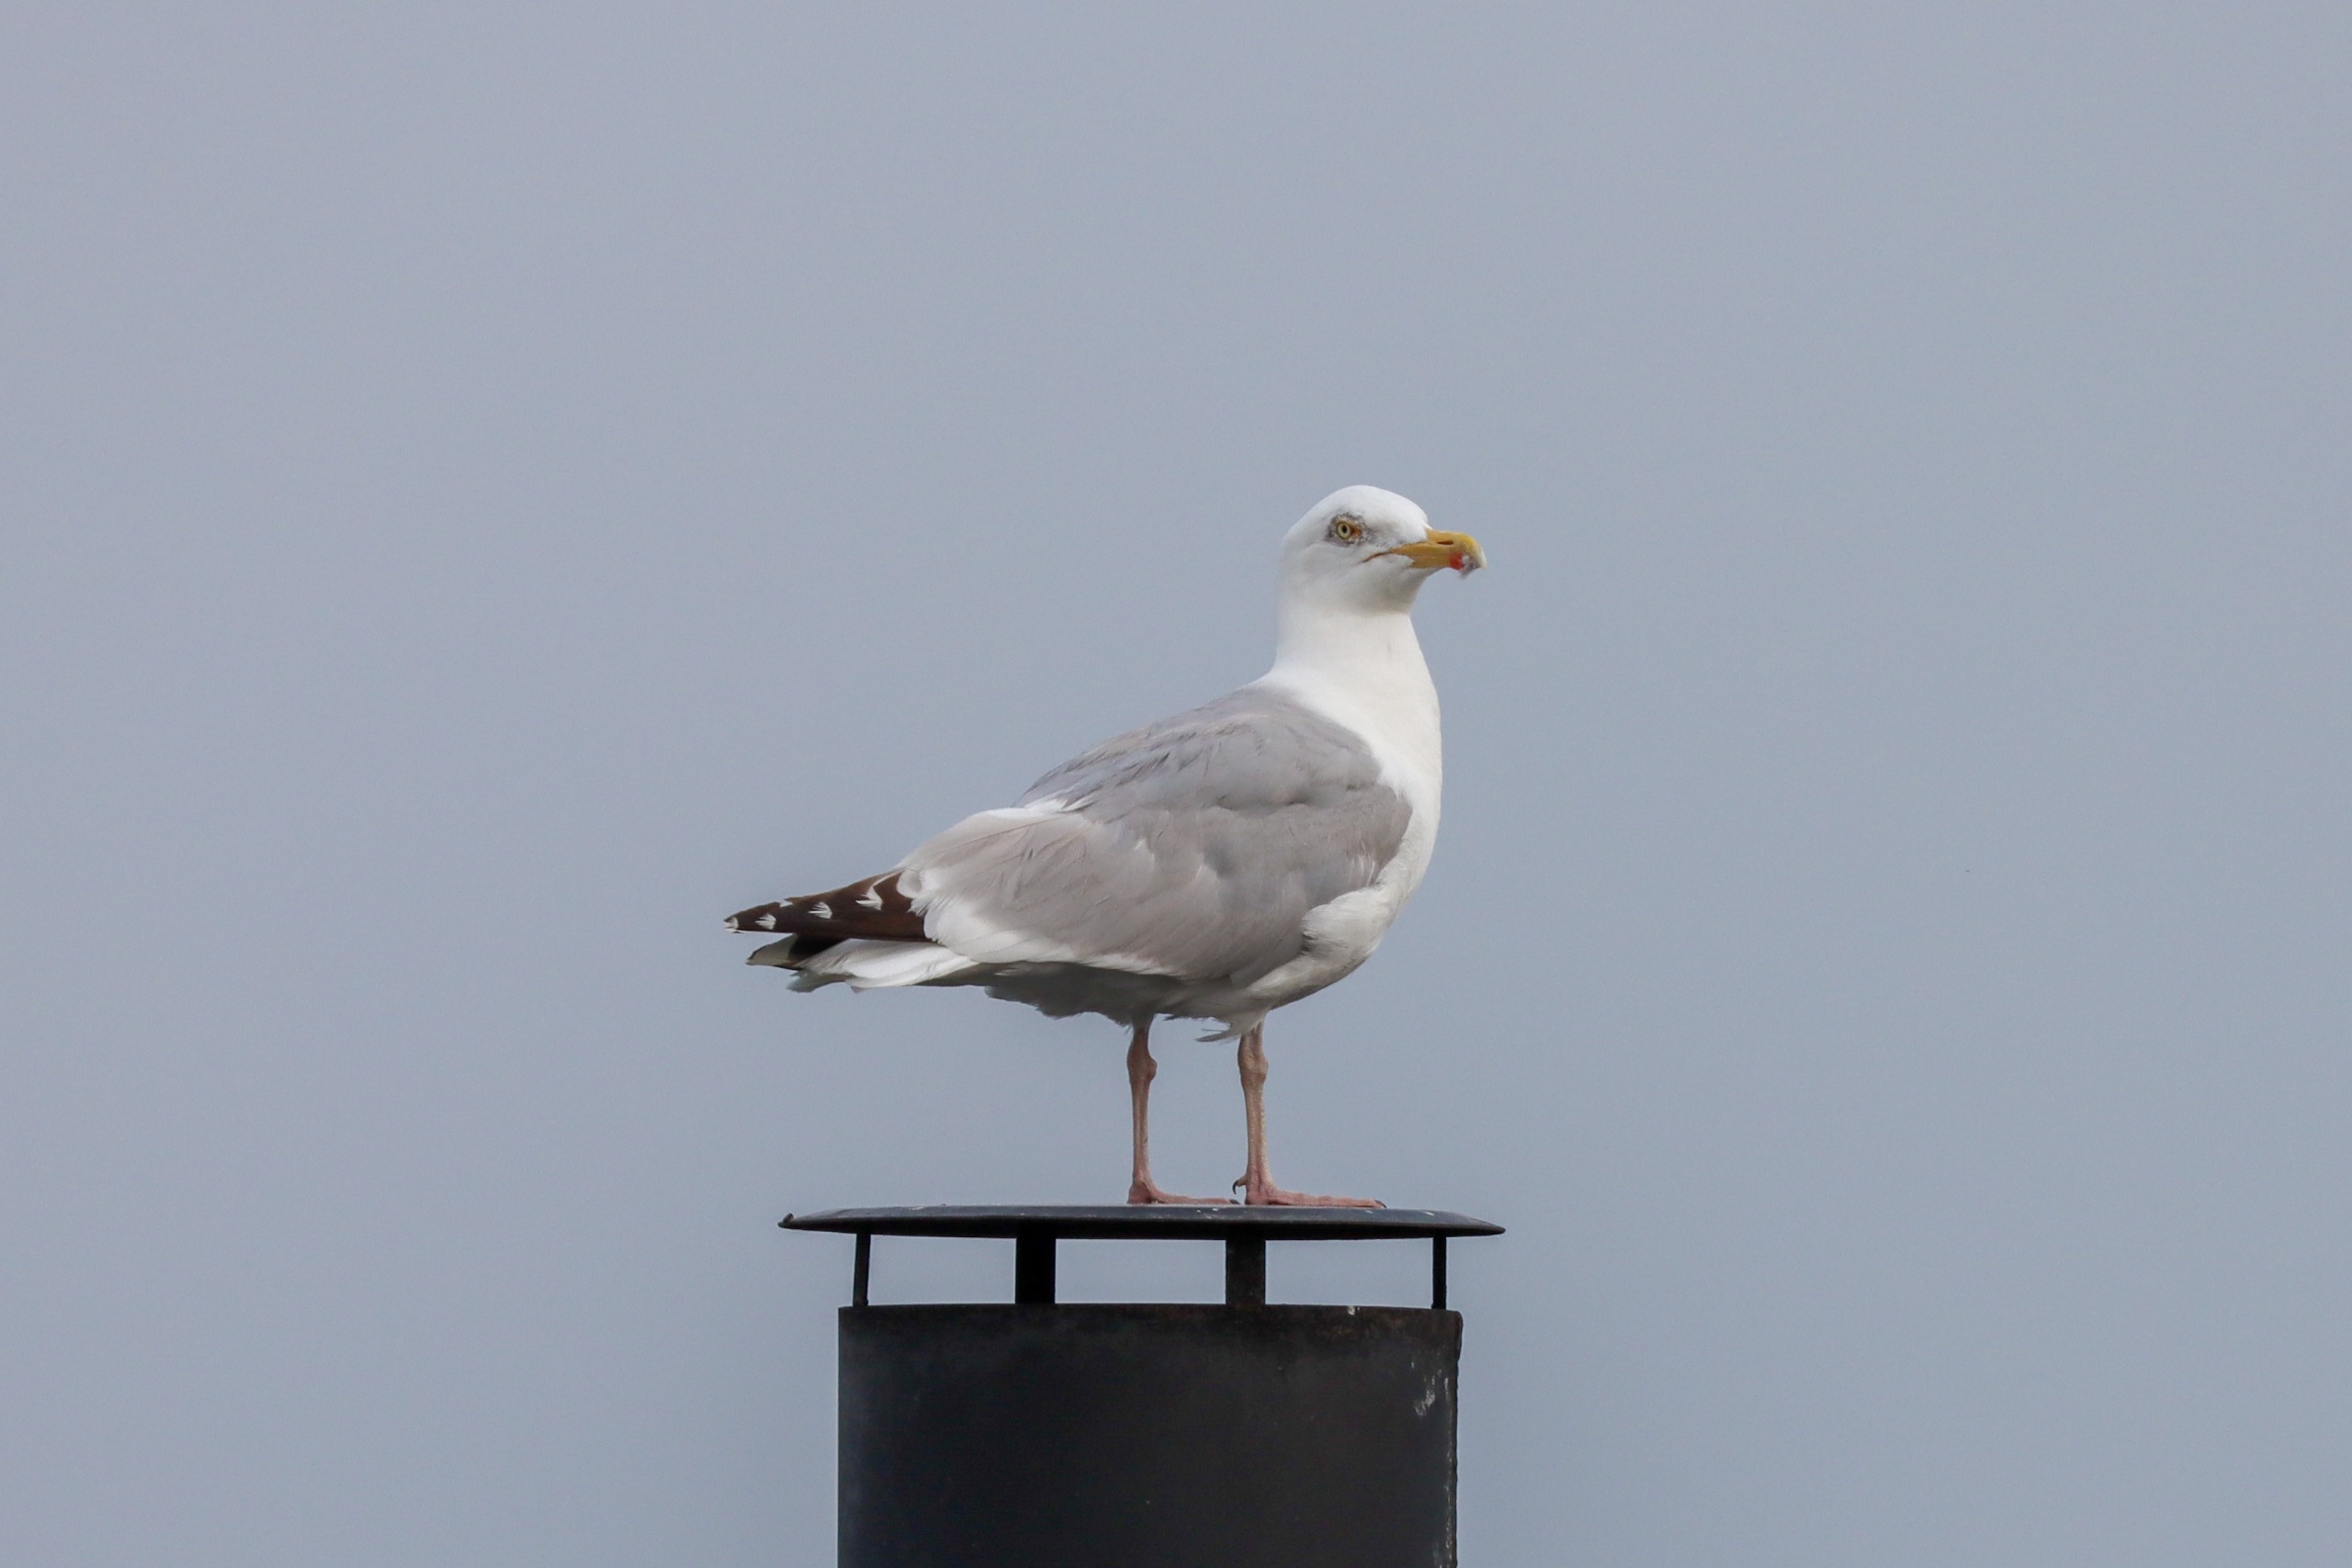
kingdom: Animalia
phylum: Chordata
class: Aves
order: Charadriiformes
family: Laridae
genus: Larus
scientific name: Larus argentatus
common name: Sølvmåge
